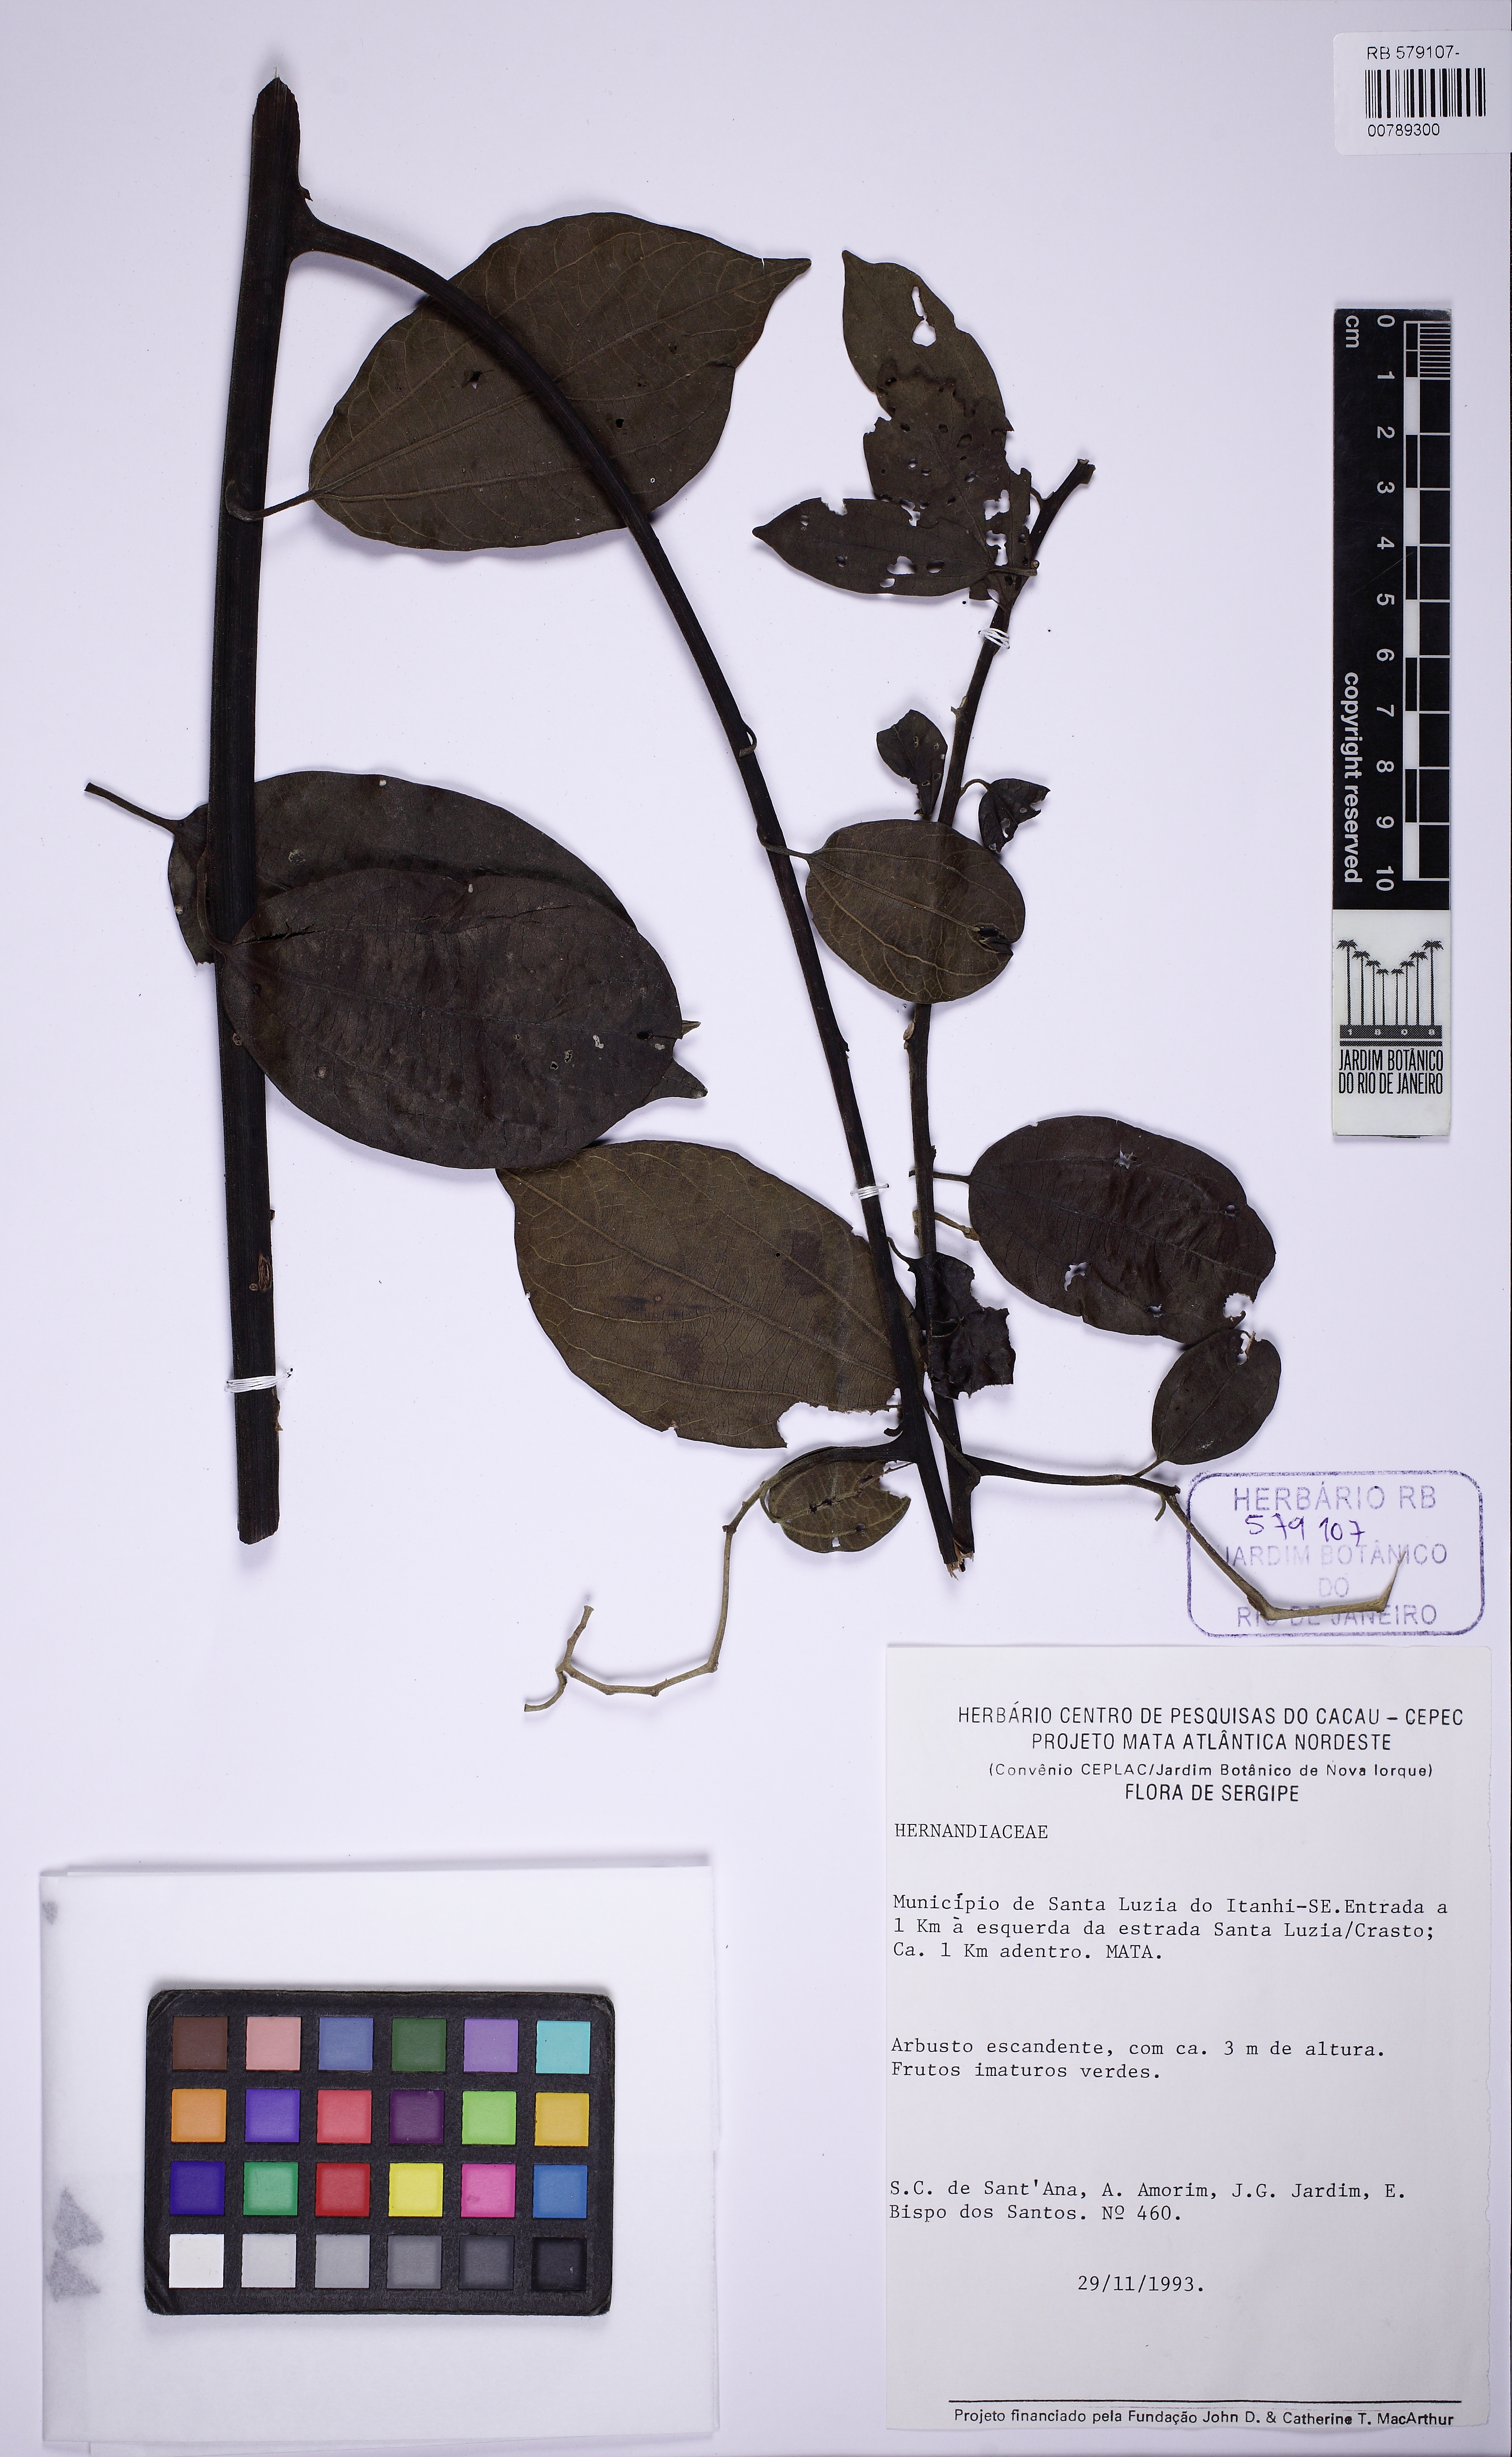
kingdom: Plantae
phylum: Tracheophyta
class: Magnoliopsida
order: Laurales
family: Hernandiaceae
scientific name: Hernandiaceae
